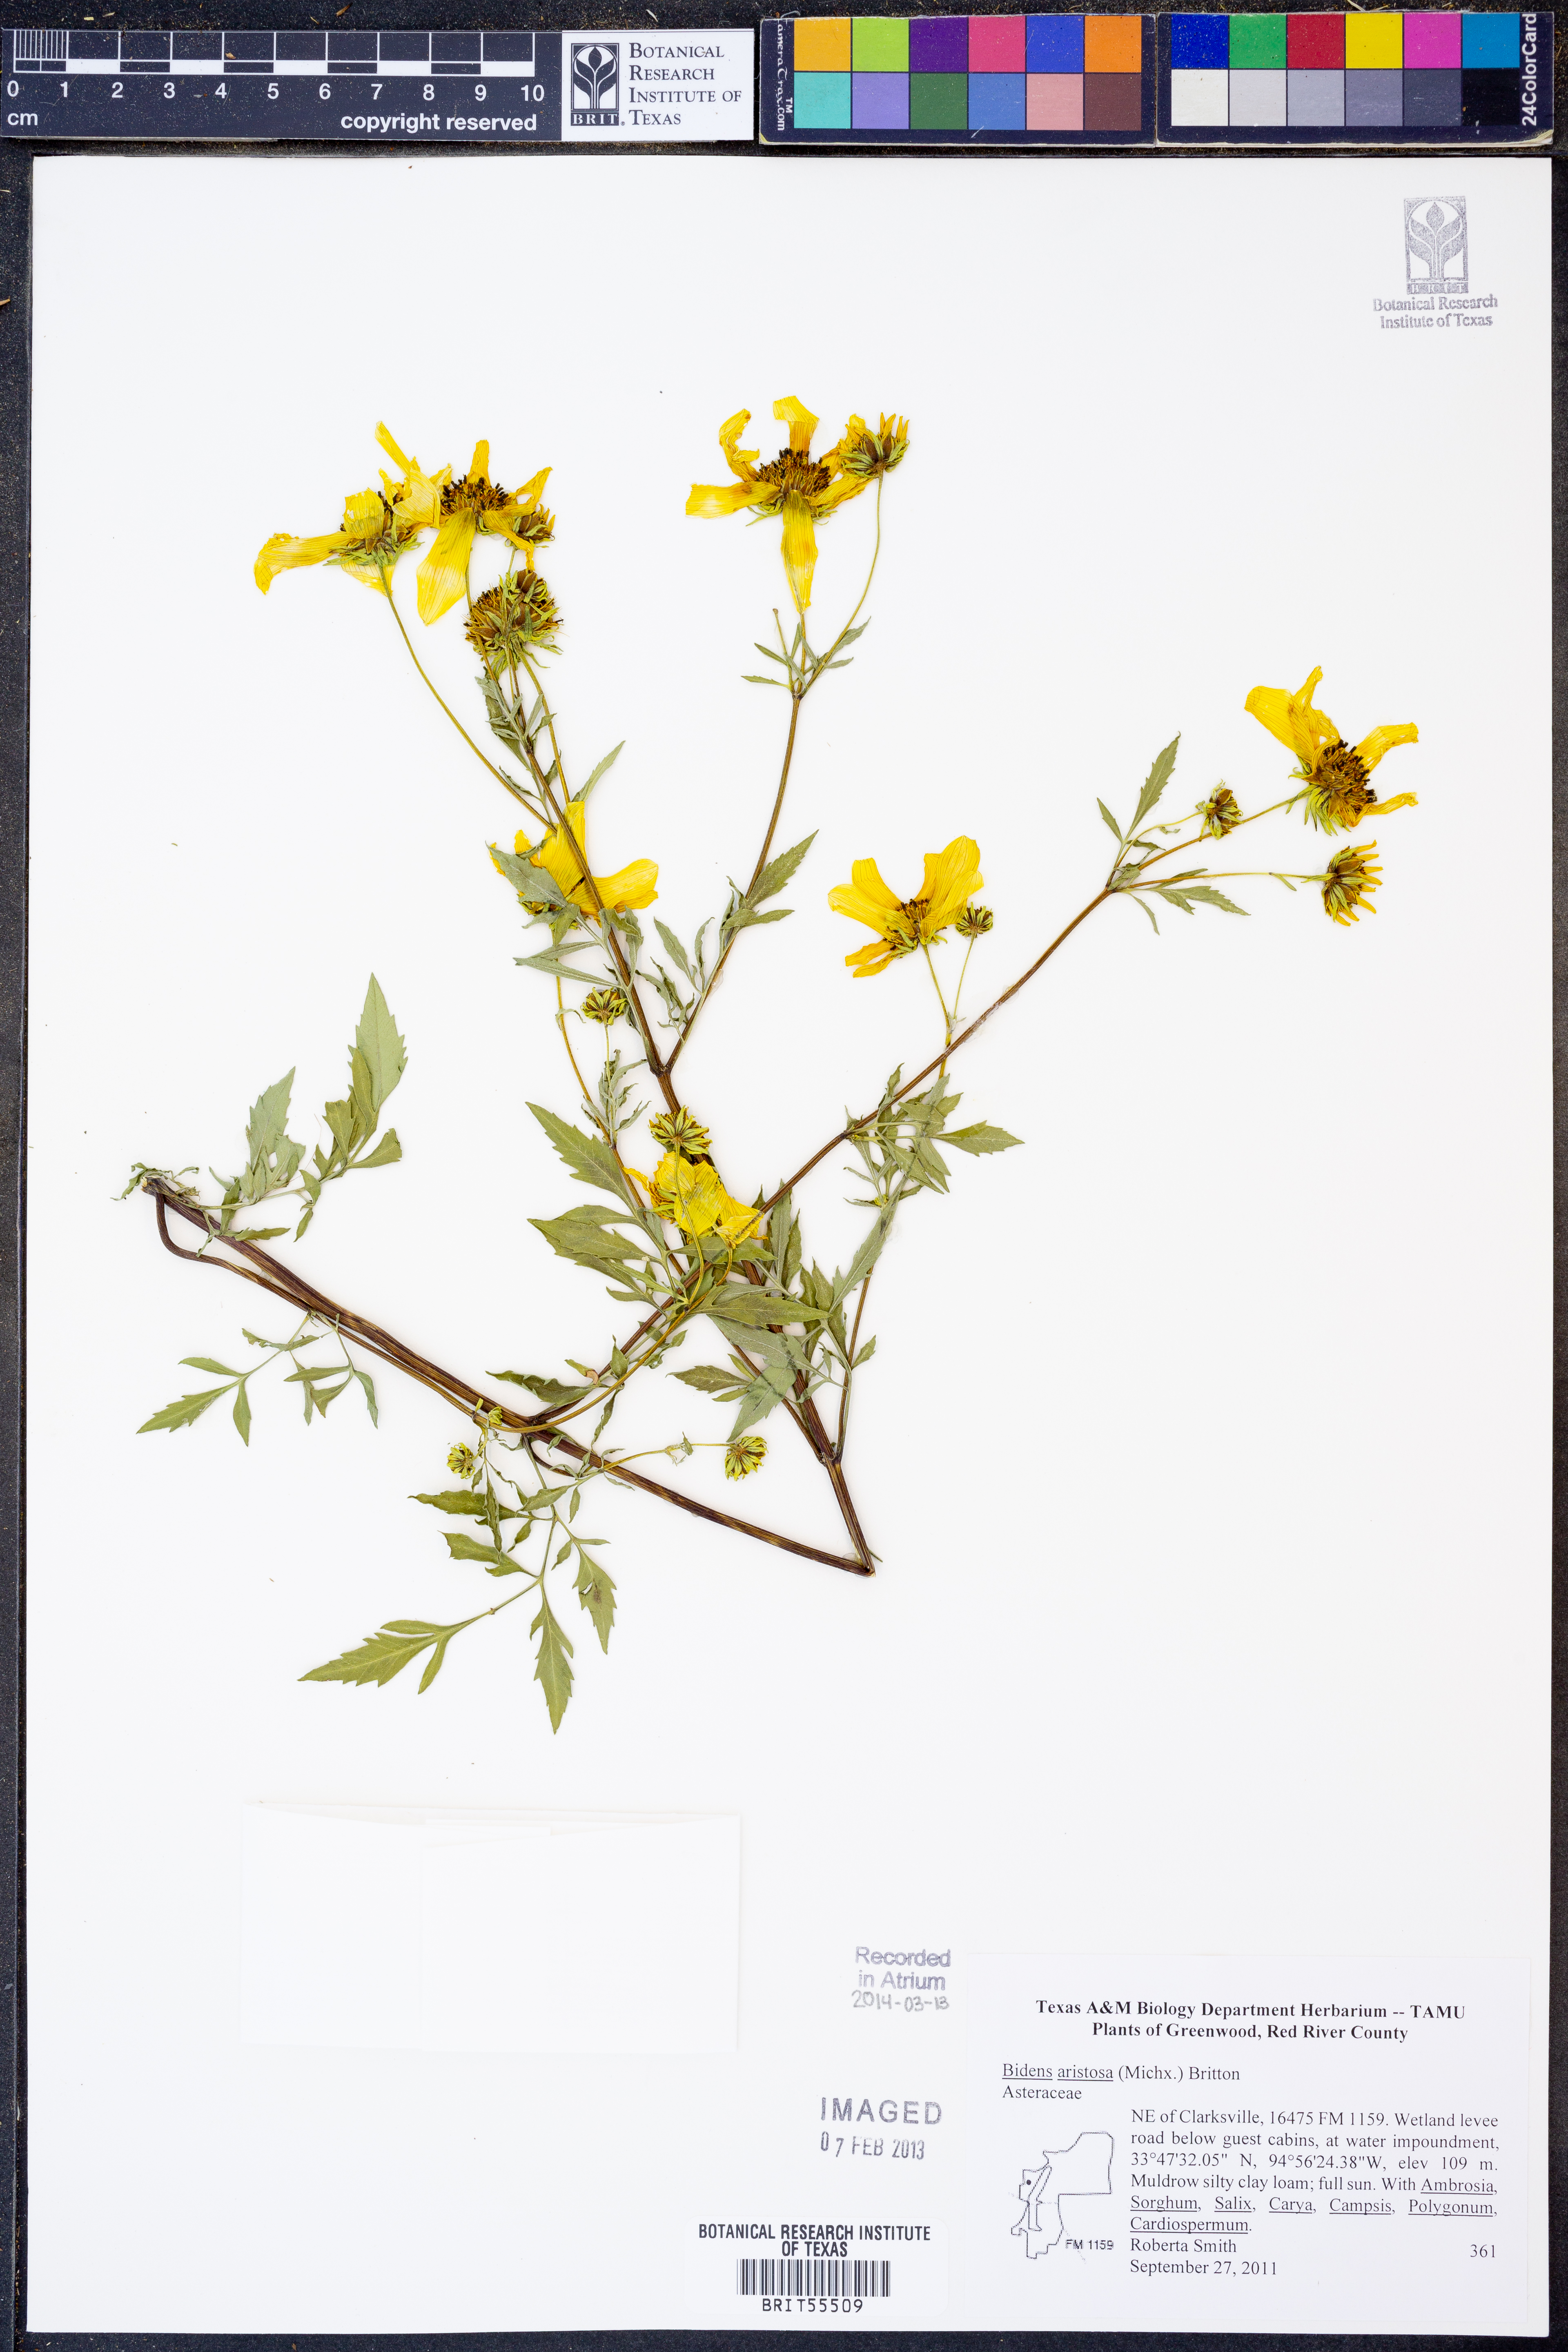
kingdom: Plantae
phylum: Tracheophyta
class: Magnoliopsida
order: Asterales
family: Asteraceae
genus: Bidens
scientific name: Bidens aristosa
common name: Western tickseed
